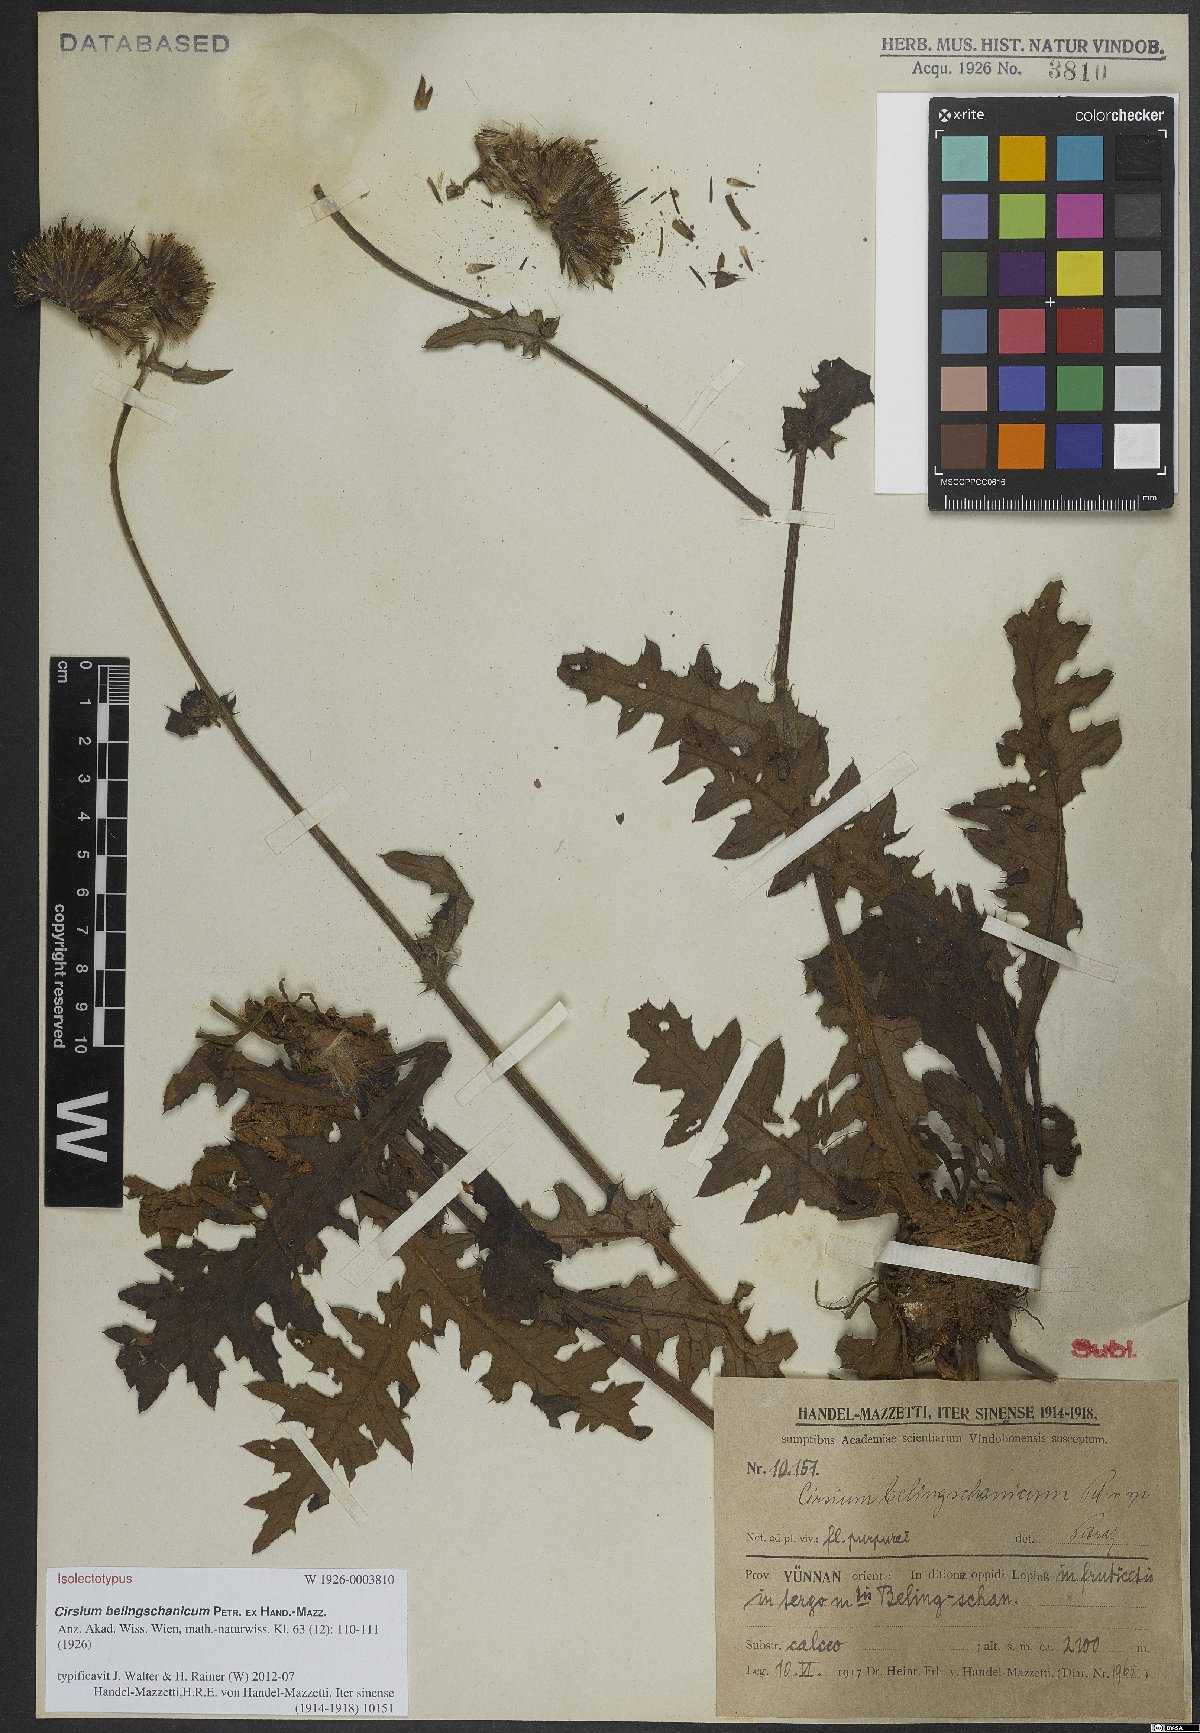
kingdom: Plantae
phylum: Tracheophyta
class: Magnoliopsida
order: Asterales
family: Asteraceae
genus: Cirsium
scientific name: Cirsium japonicum
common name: Japanese thistle
